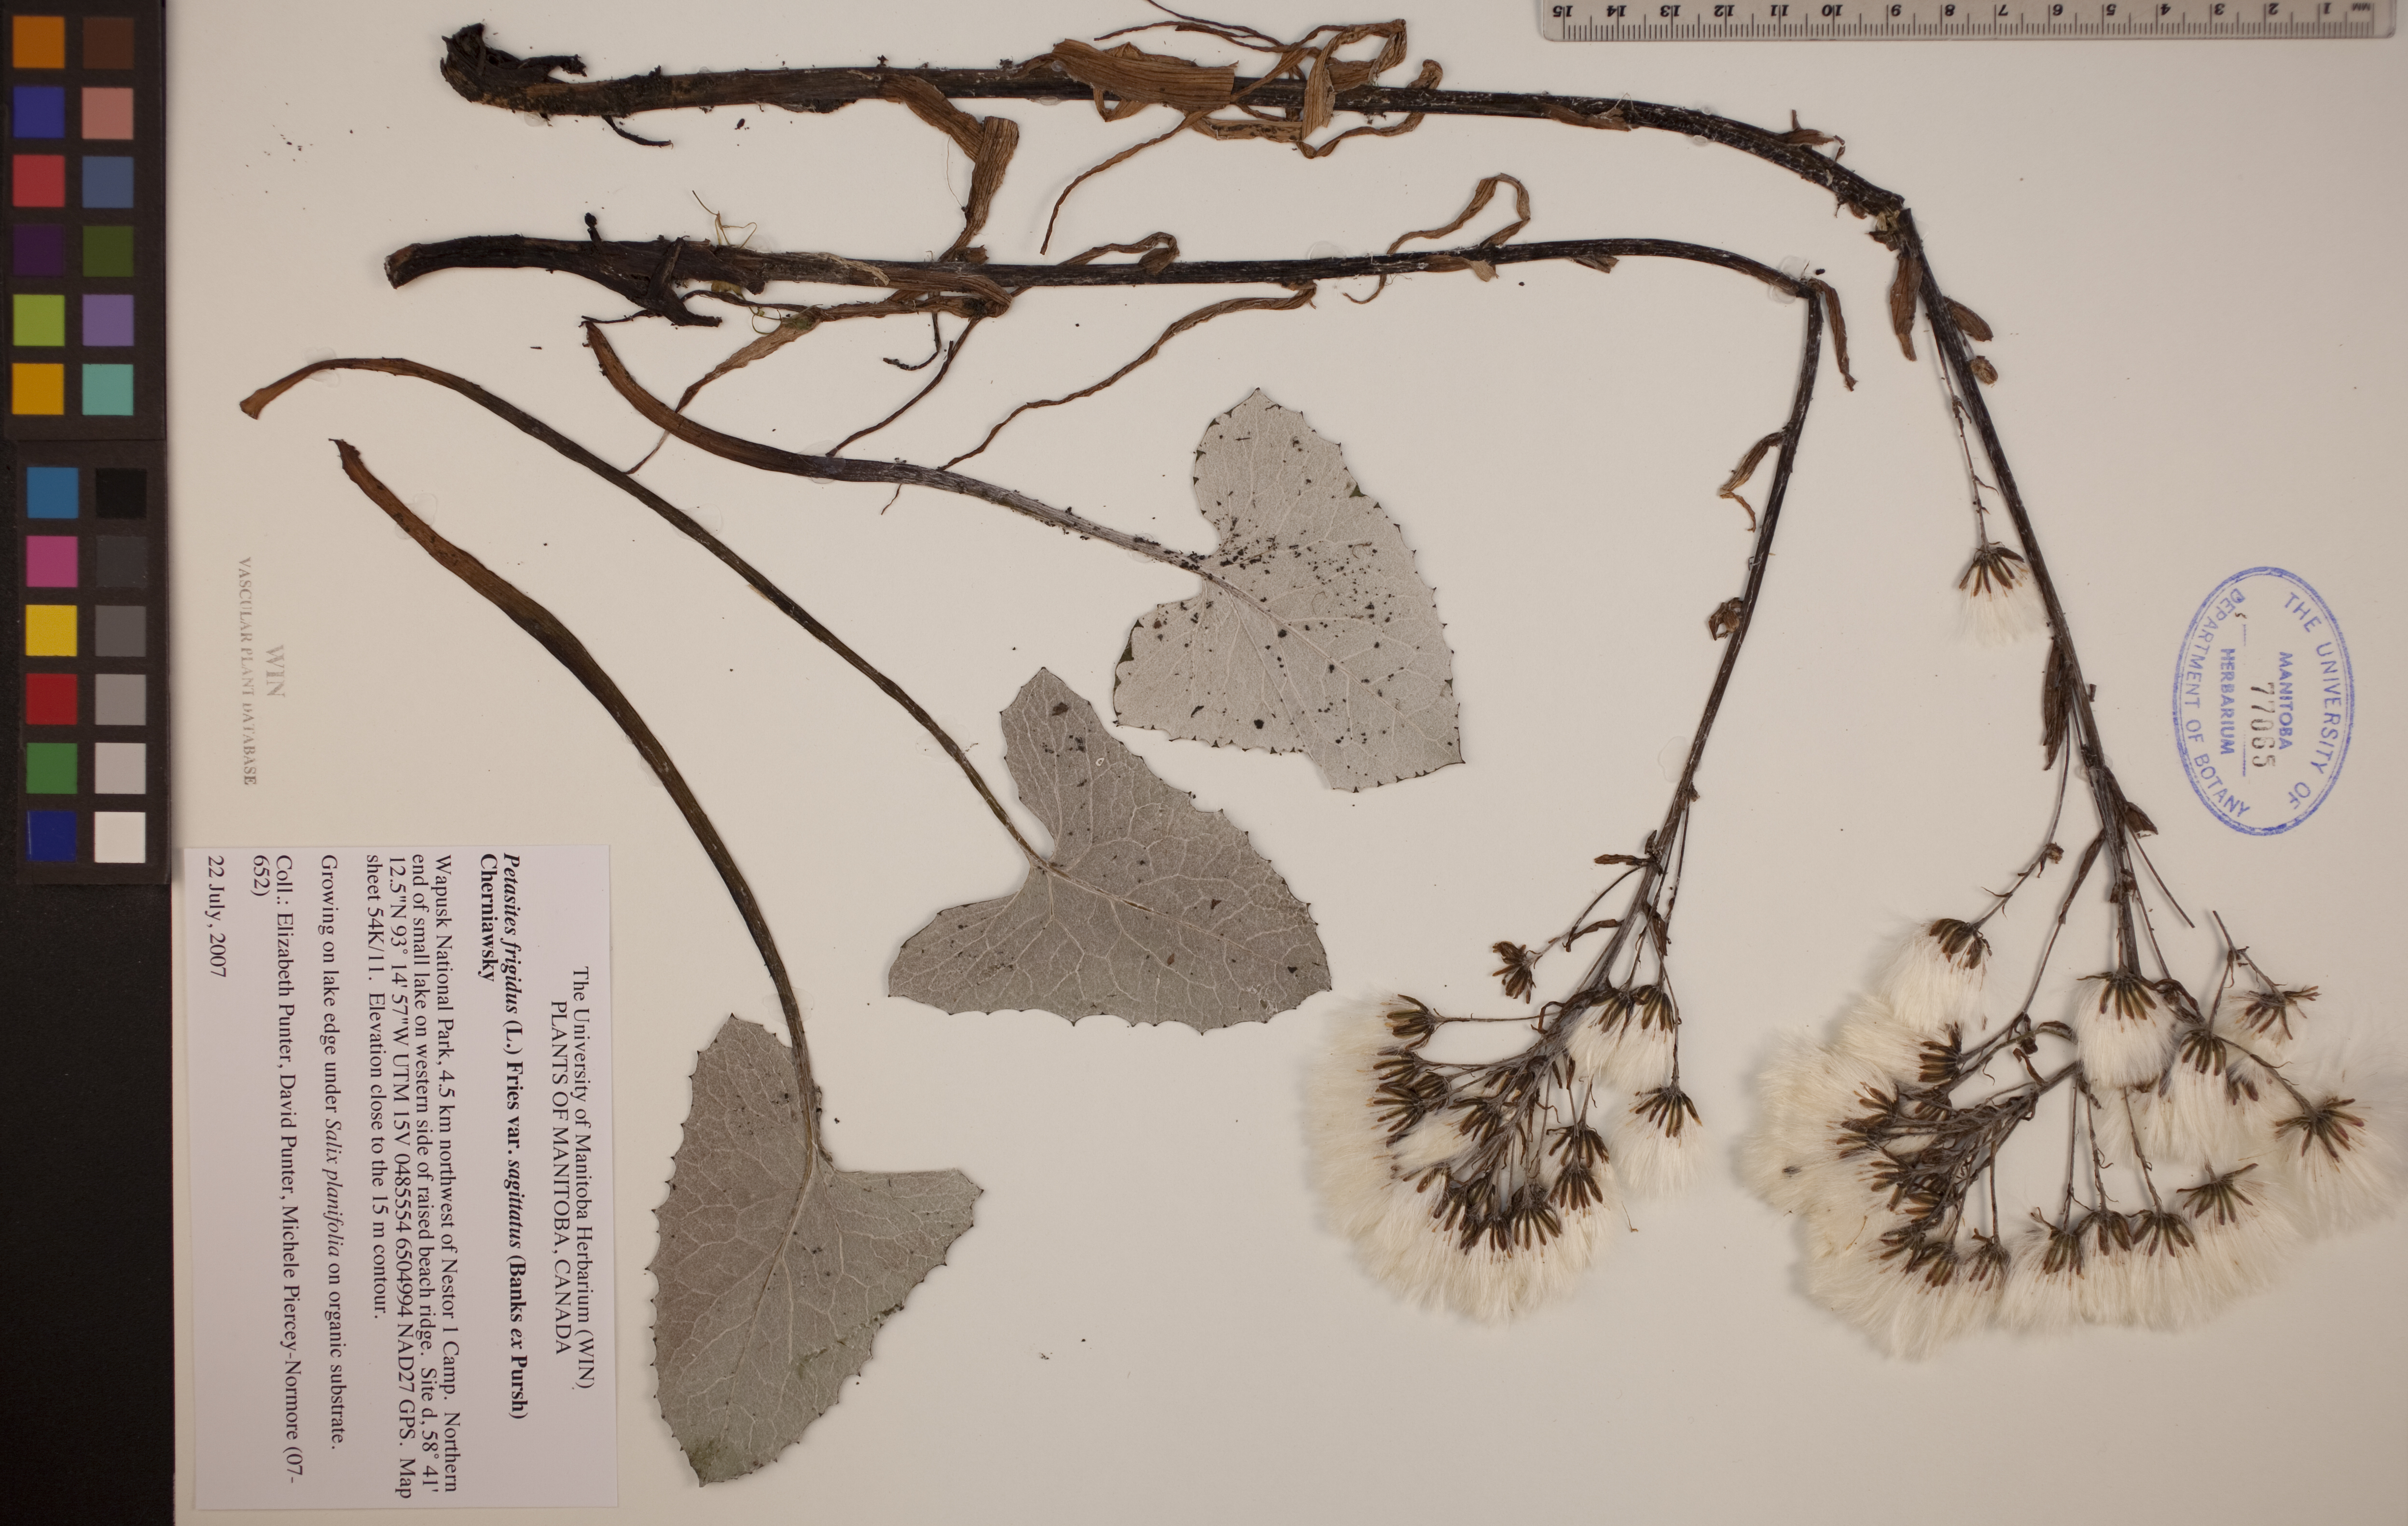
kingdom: Plantae
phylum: Tracheophyta
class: Magnoliopsida
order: Asterales
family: Asteraceae
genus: Petasites
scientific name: Petasites frigidus
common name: Arctic butterbur
